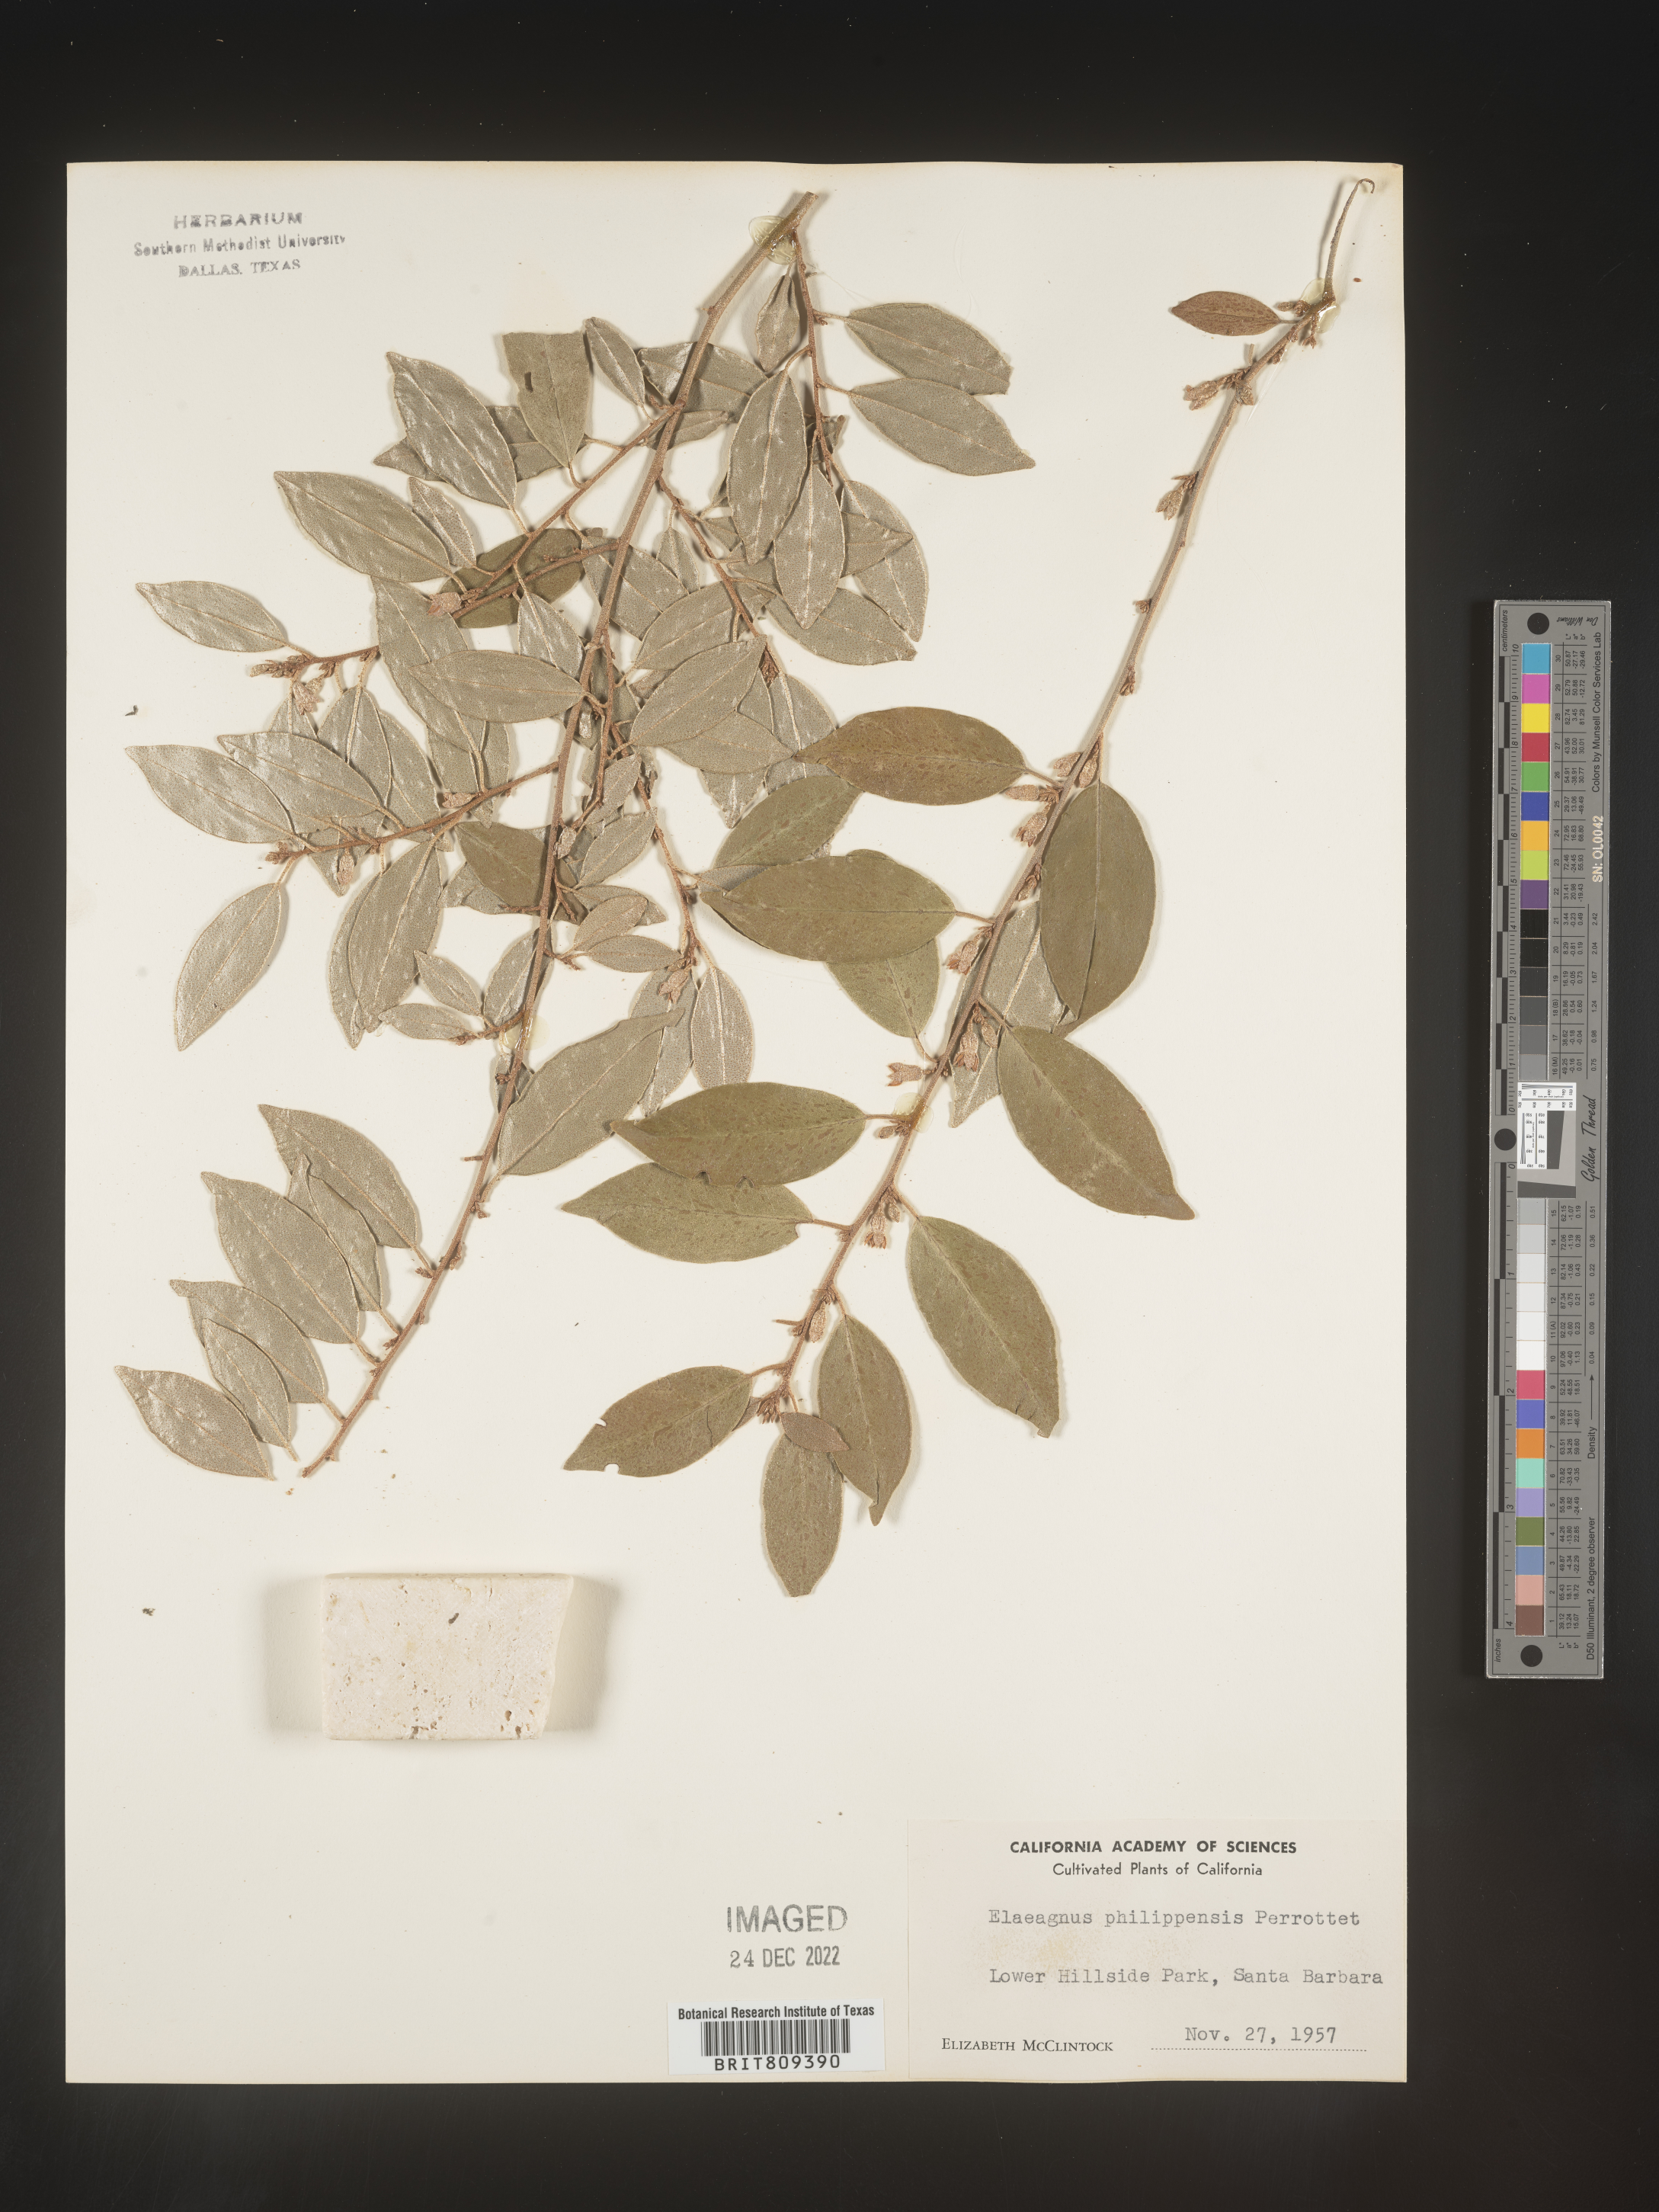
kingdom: Plantae
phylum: Tracheophyta
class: Magnoliopsida
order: Rosales
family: Elaeagnaceae
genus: Elaeagnus
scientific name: Elaeagnus
